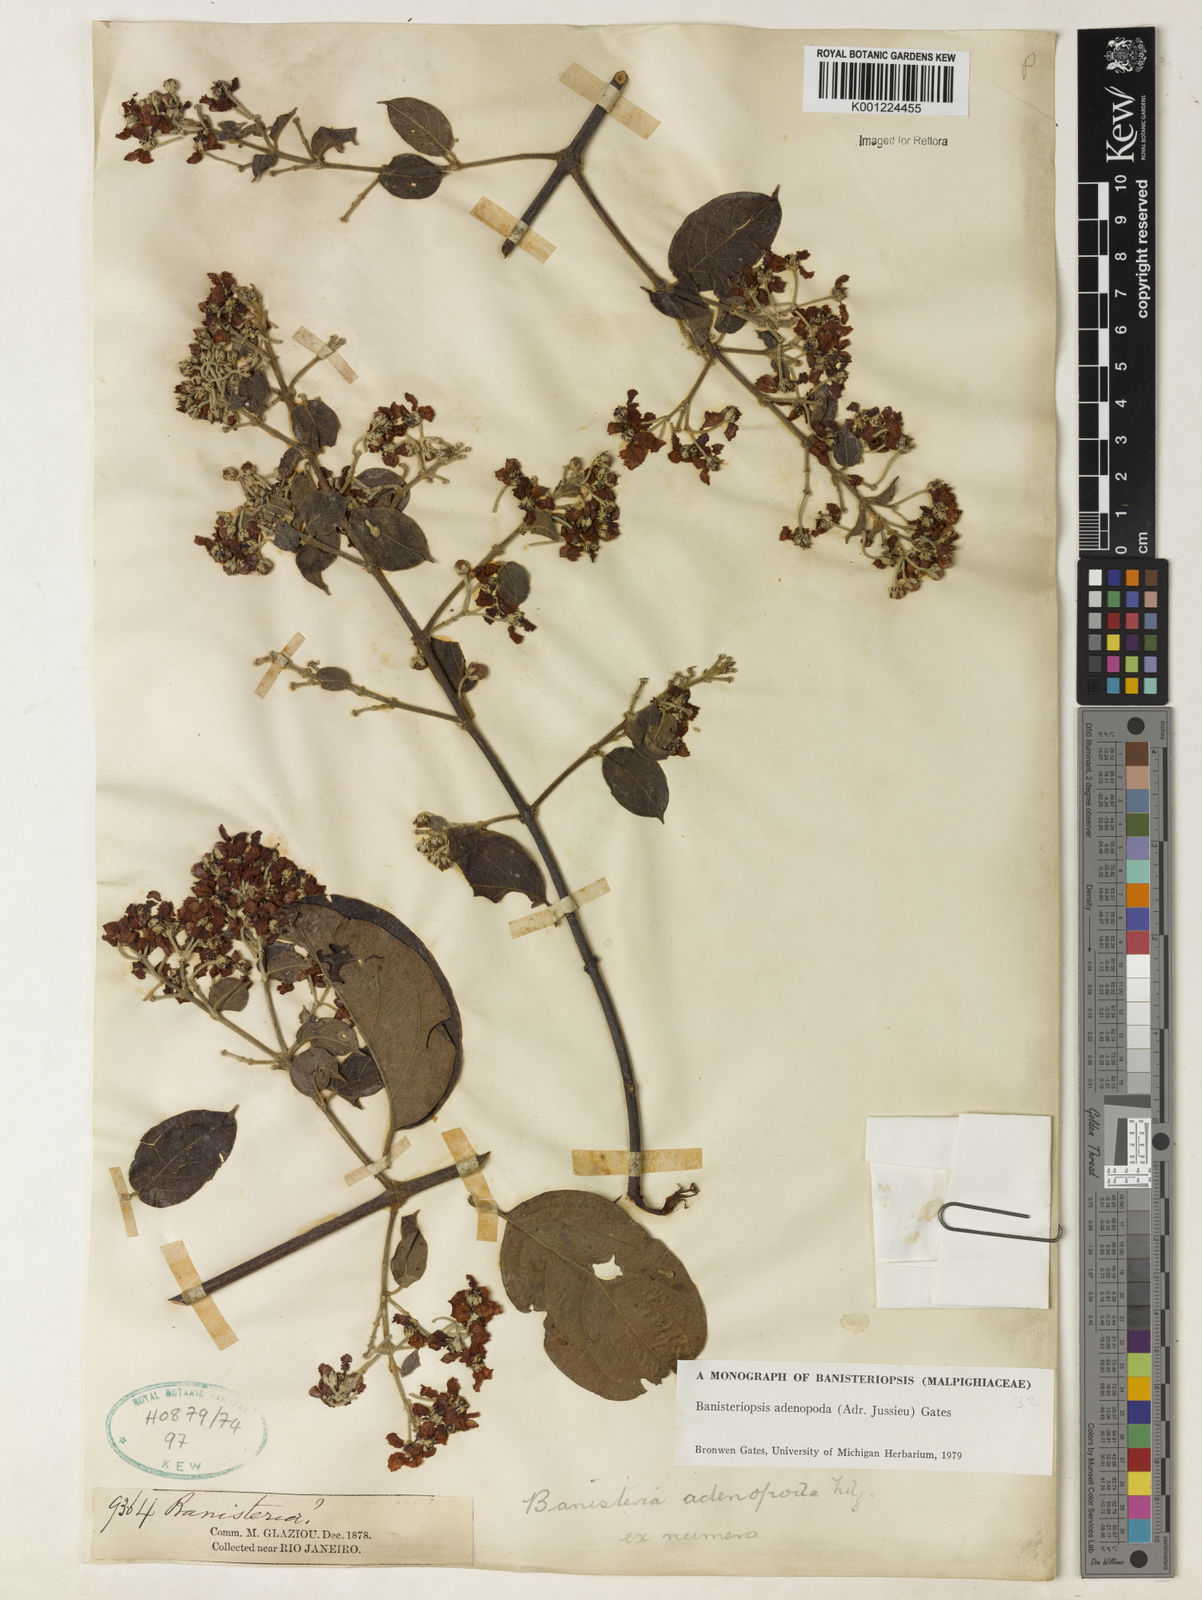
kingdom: Plantae
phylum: Tracheophyta
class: Magnoliopsida
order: Malpighiales
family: Malpighiaceae
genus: Banisteriopsis
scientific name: Banisteriopsis adenopoda
